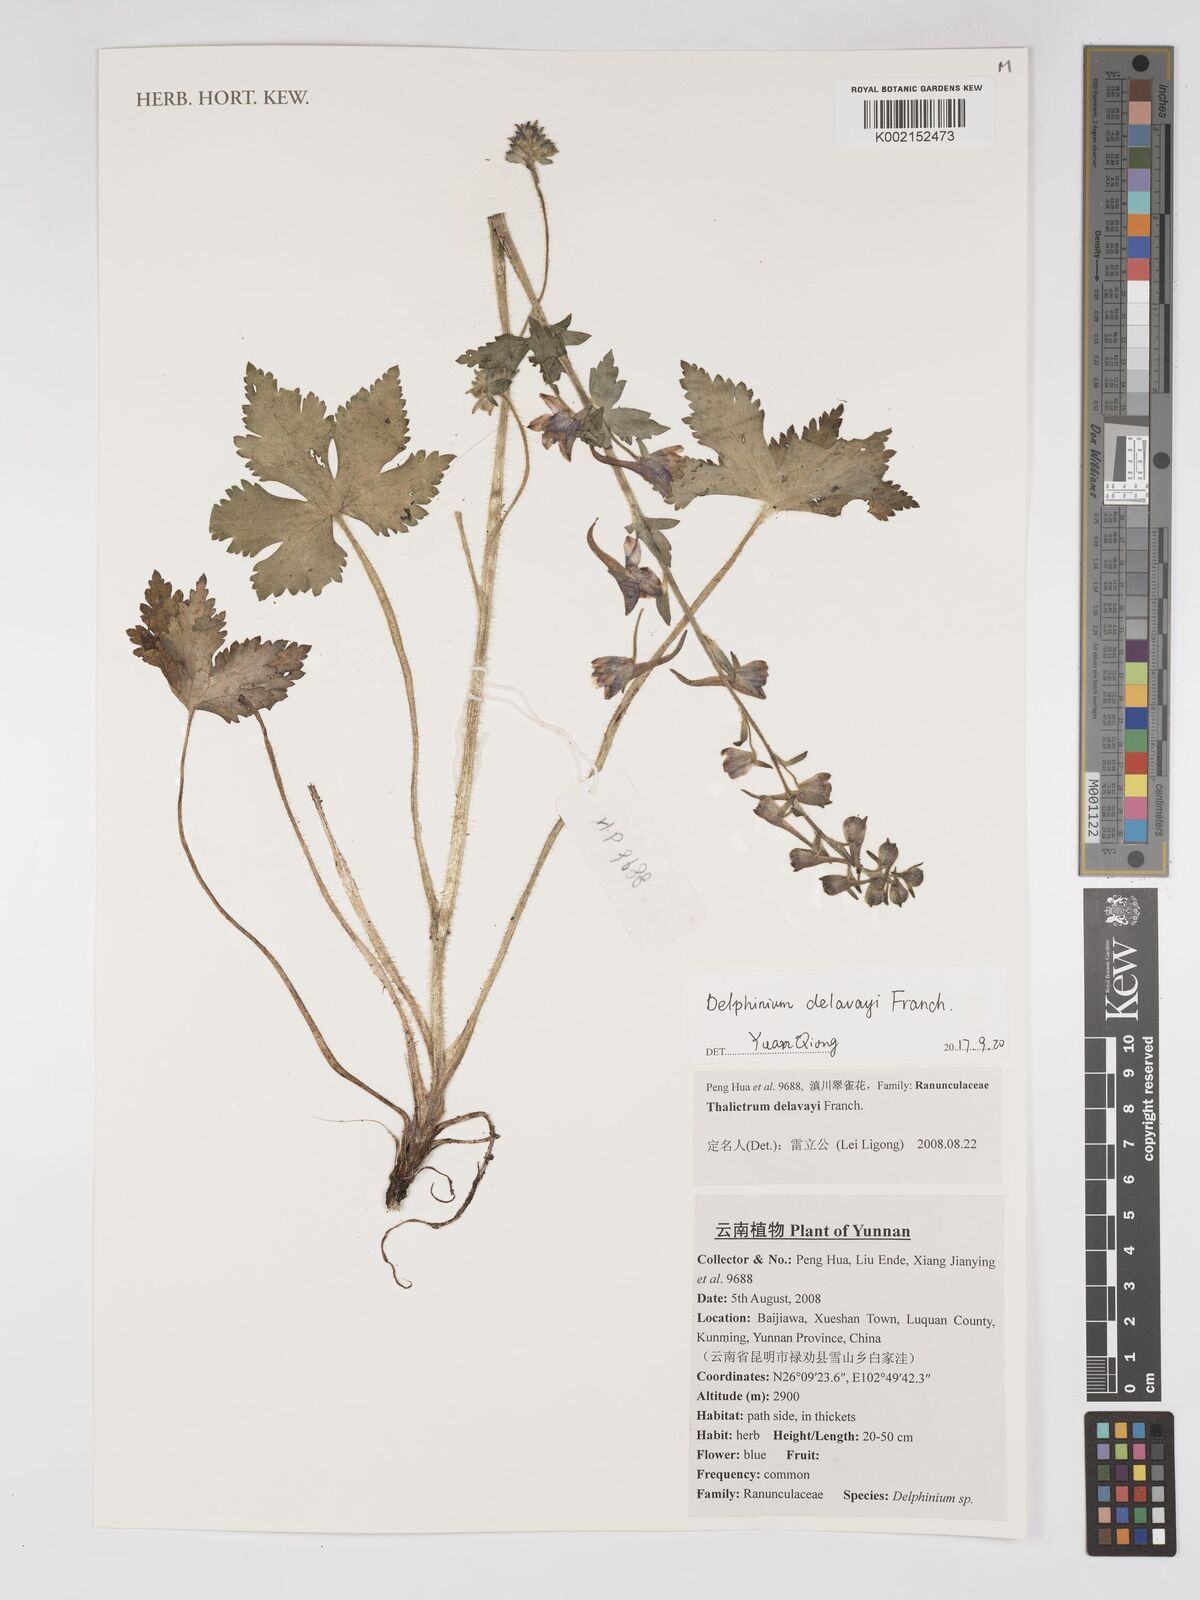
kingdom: Plantae
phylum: Tracheophyta
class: Magnoliopsida
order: Ranunculales
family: Ranunculaceae
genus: Delphinium
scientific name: Delphinium delavayi
